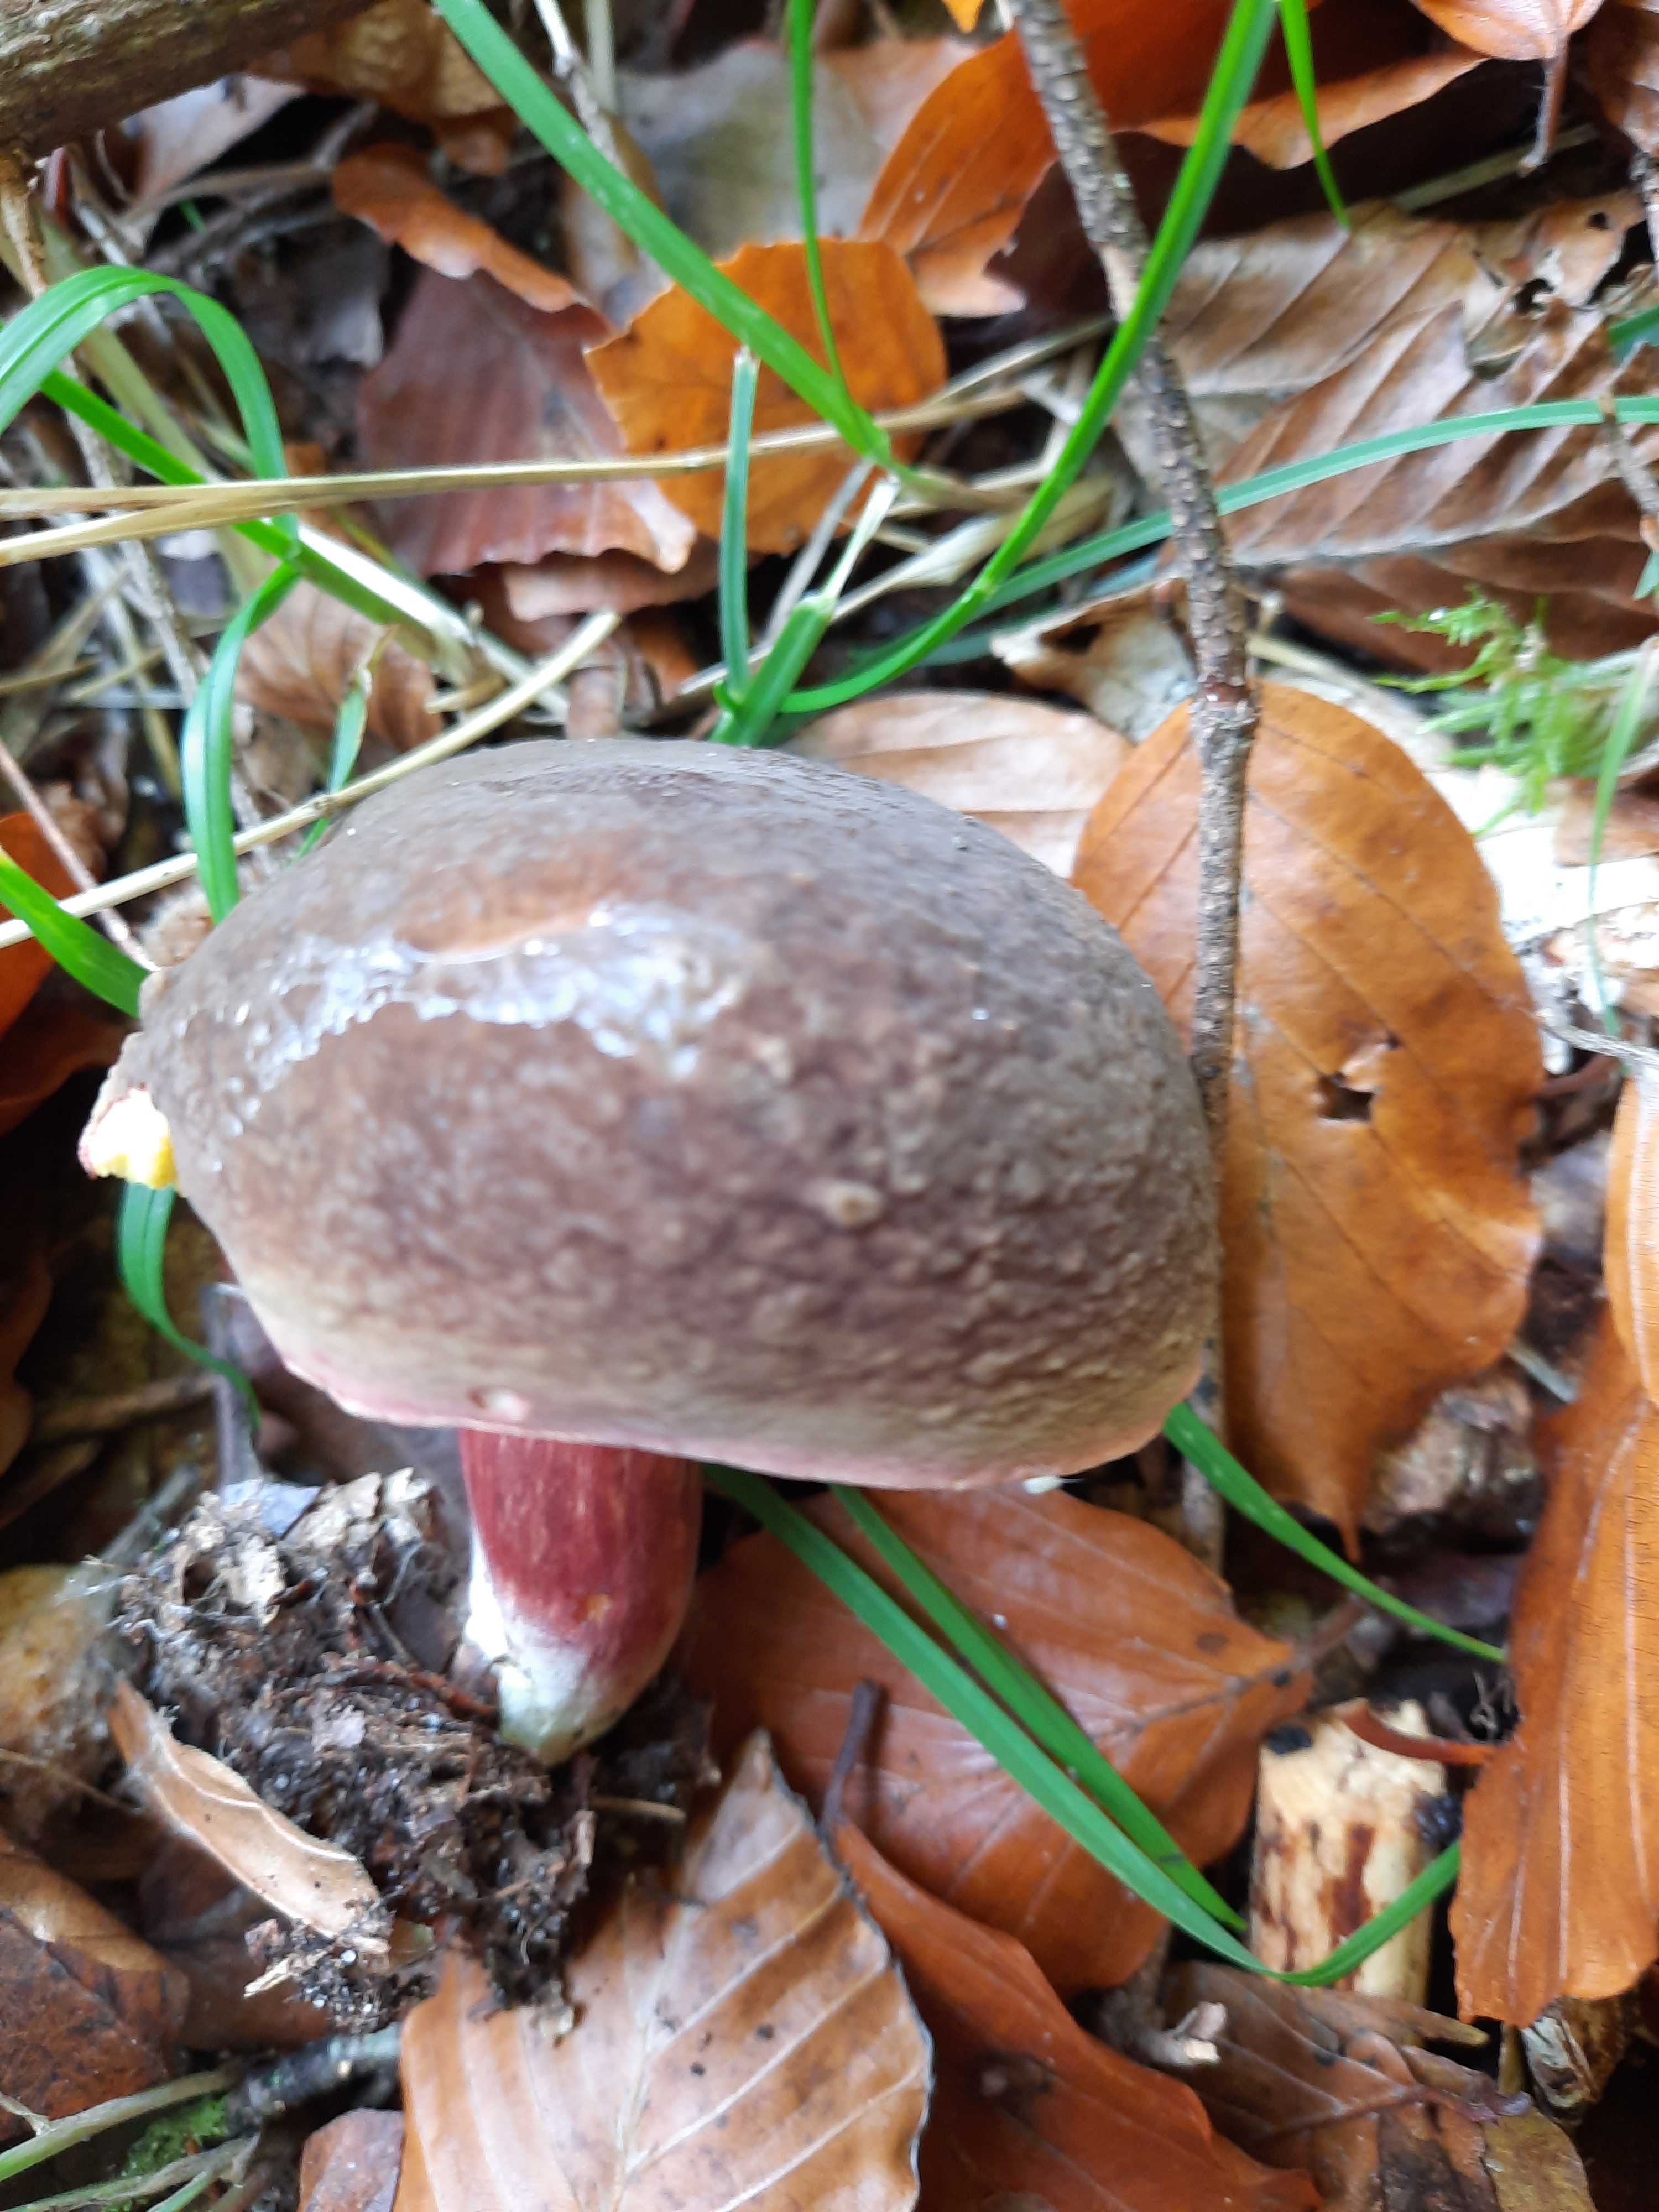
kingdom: Fungi
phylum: Basidiomycota
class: Agaricomycetes
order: Boletales
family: Boletaceae
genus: Xerocomellus
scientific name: Xerocomellus pruinatus
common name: dugget rørhat
